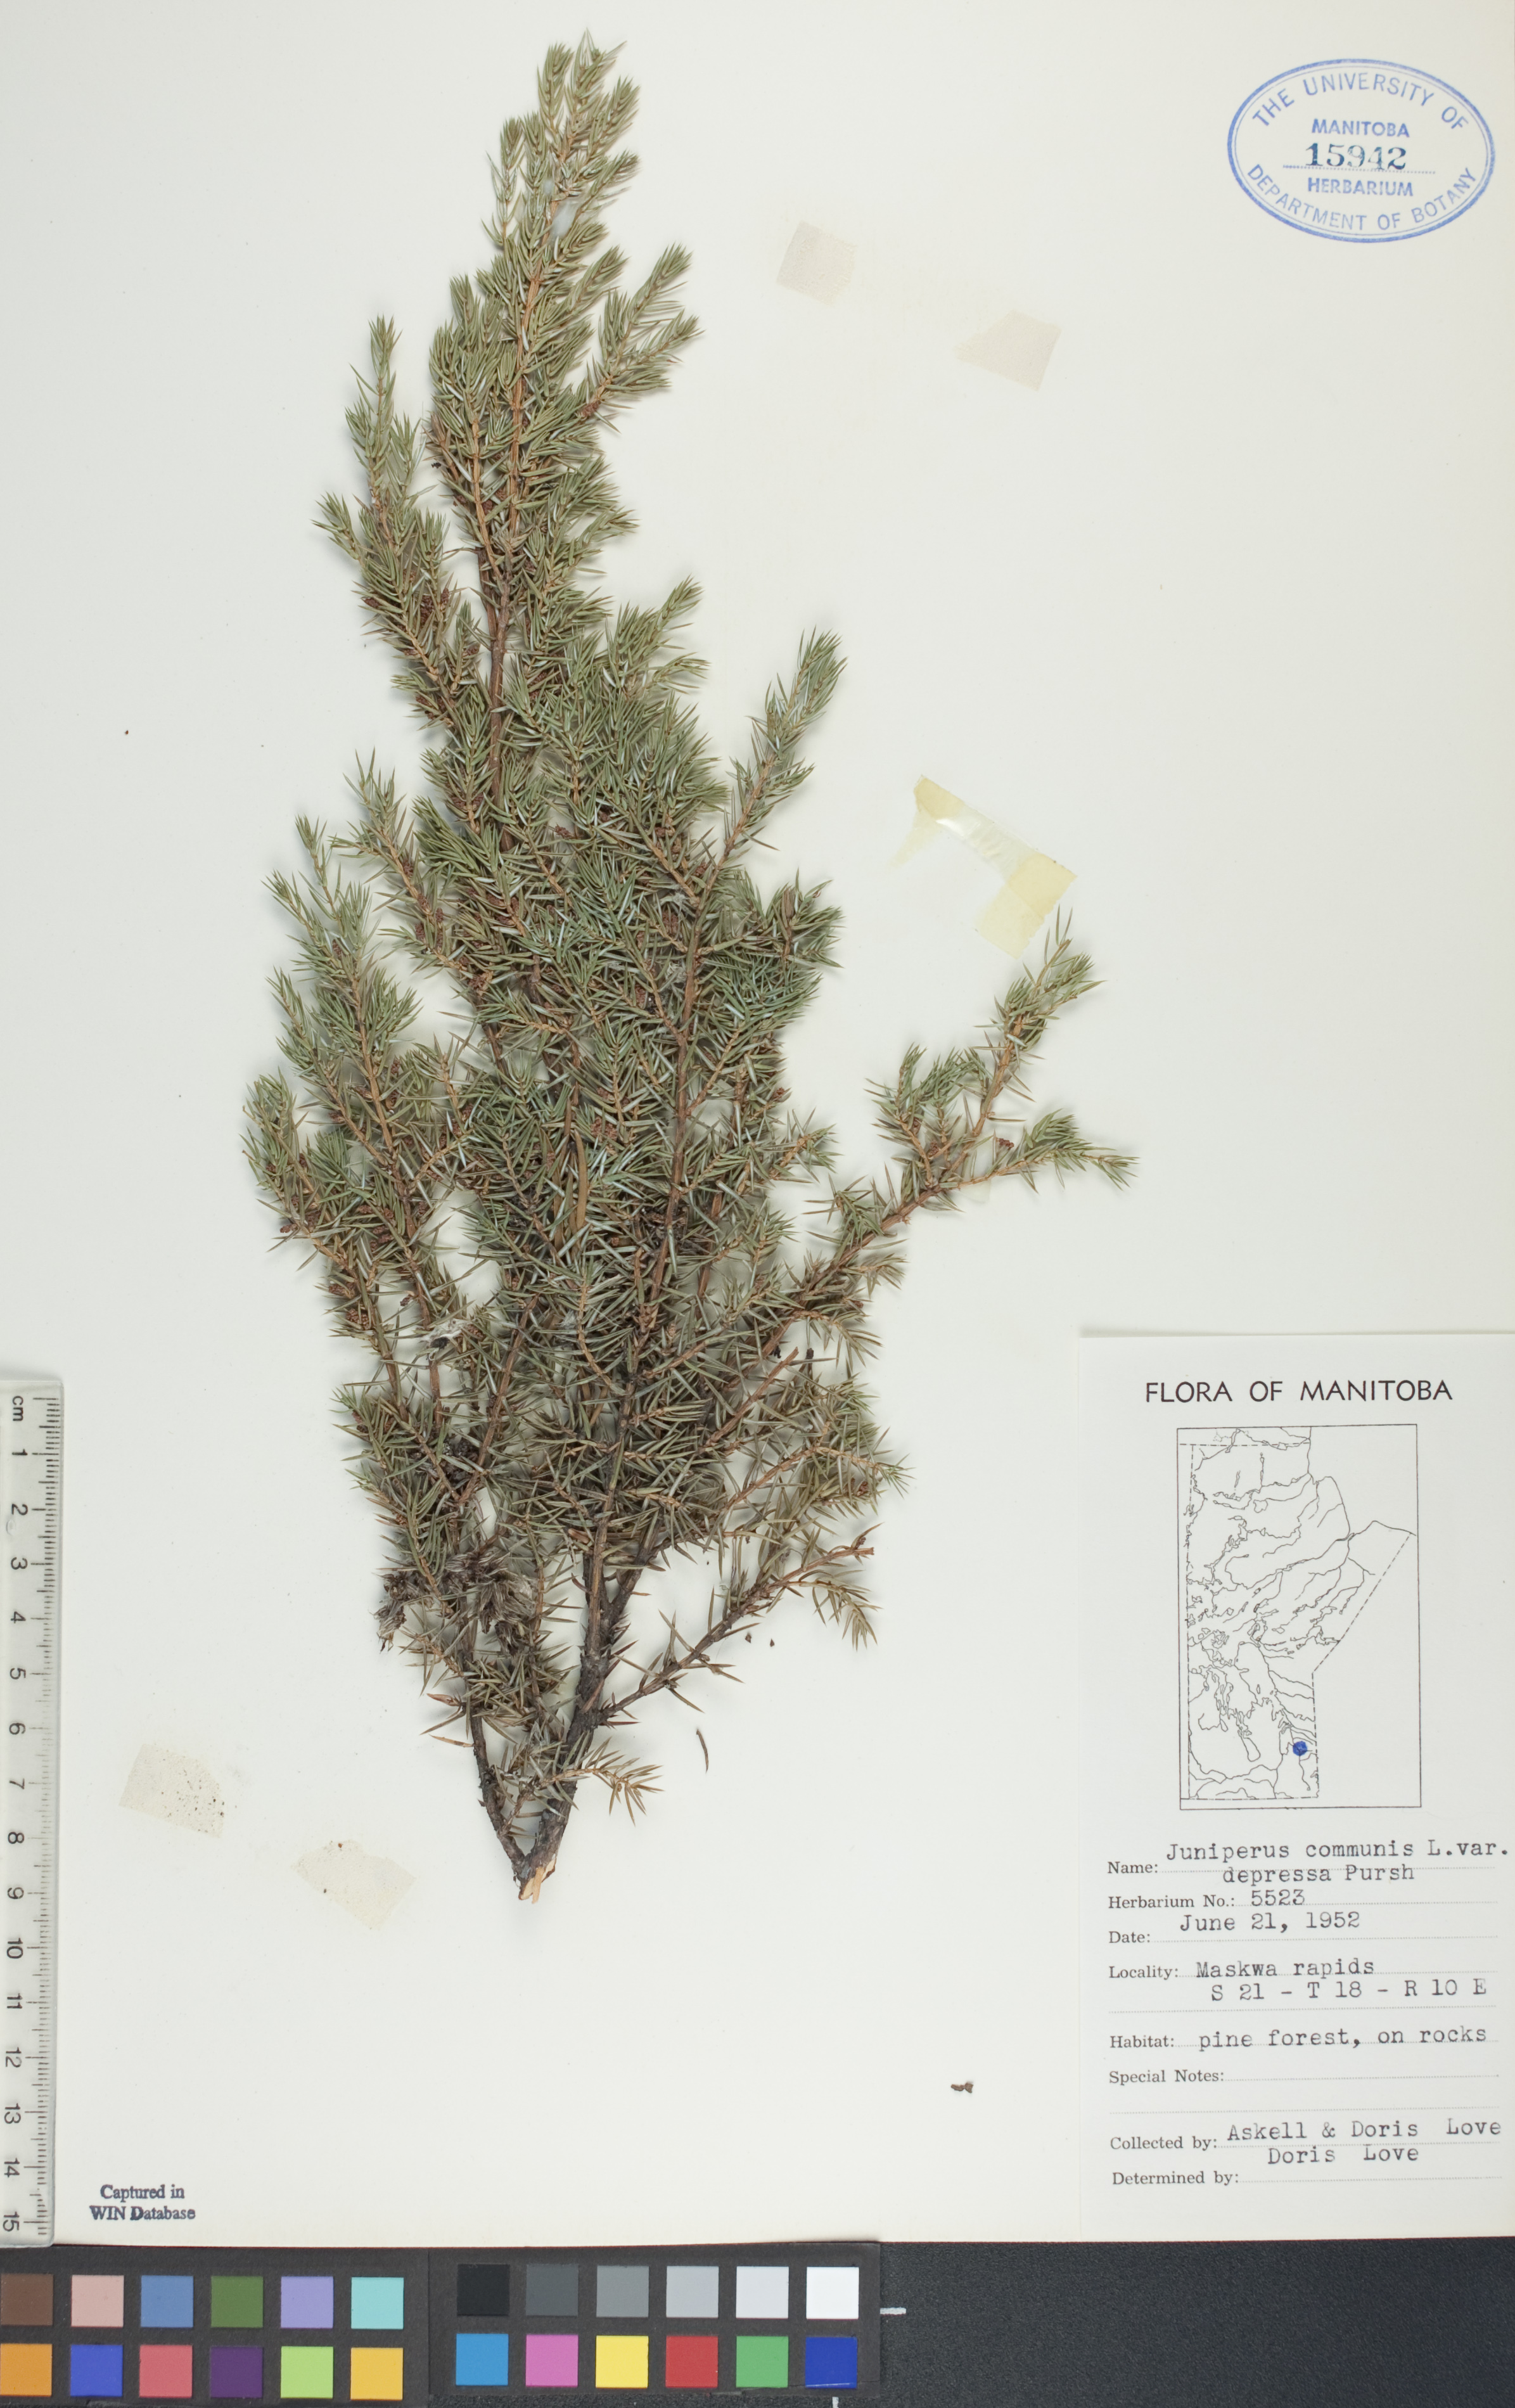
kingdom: Plantae
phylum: Tracheophyta
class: Pinopsida
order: Pinales
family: Cupressaceae
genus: Juniperus
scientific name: Juniperus communis
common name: Common juniper
